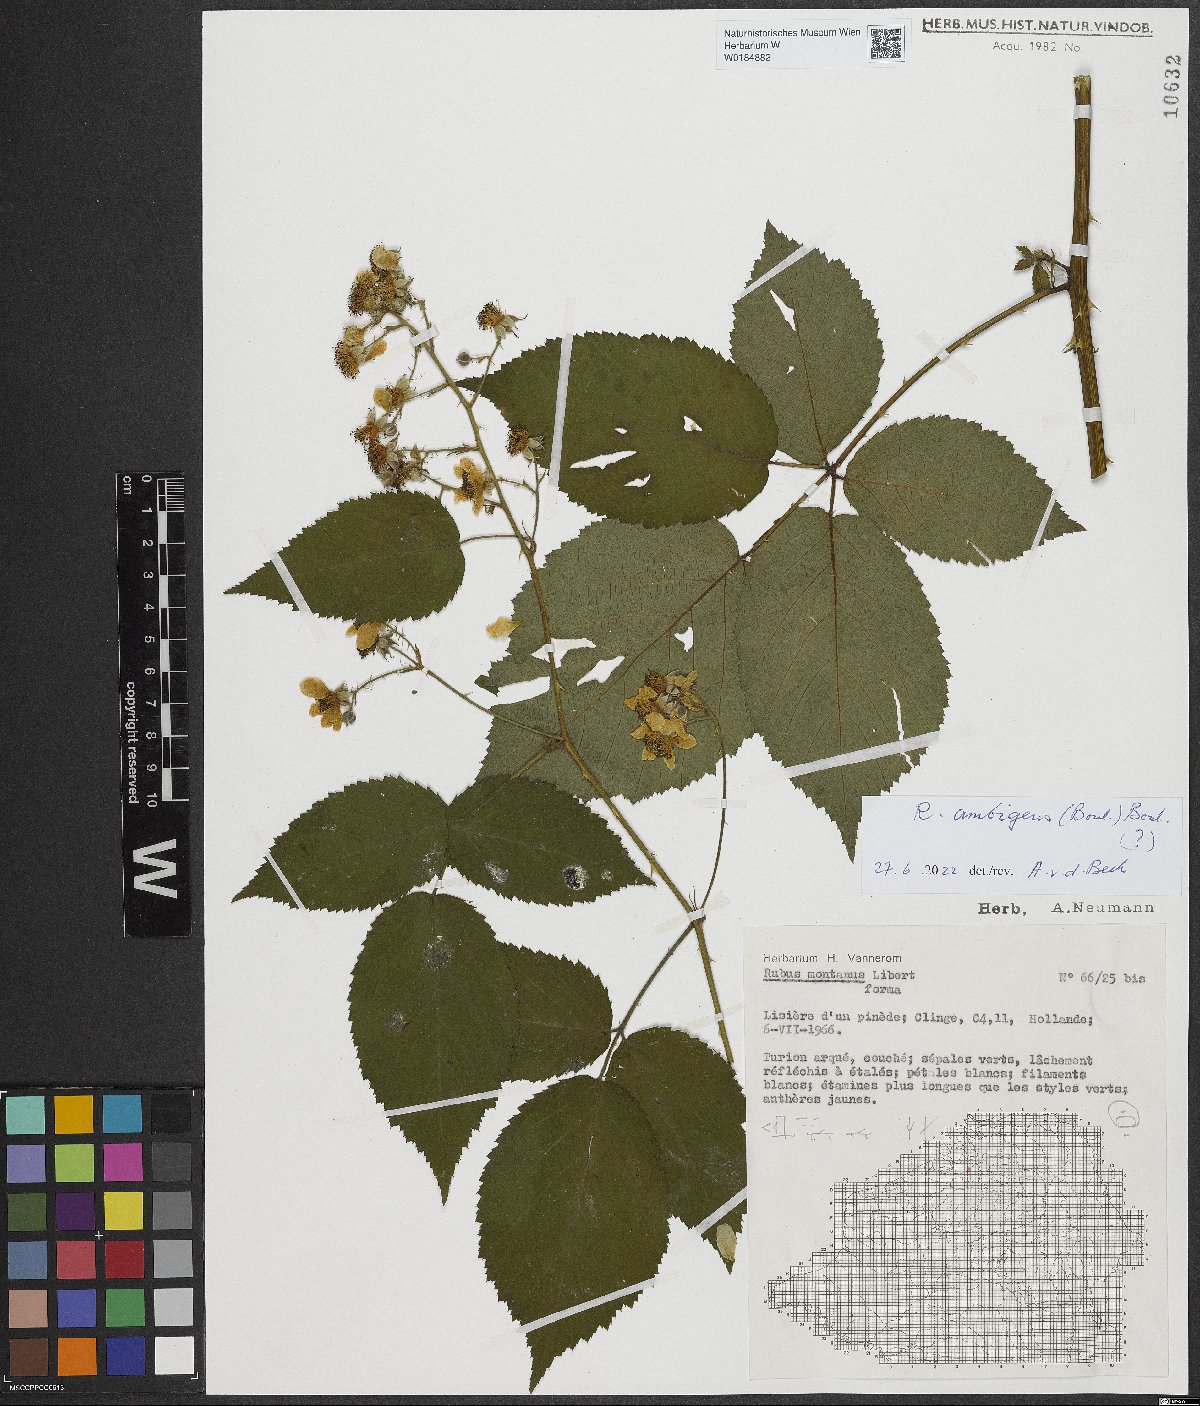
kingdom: Plantae
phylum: Tracheophyta
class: Magnoliopsida
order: Rosales
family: Rosaceae
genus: Rubus
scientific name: Rubus ambigens
